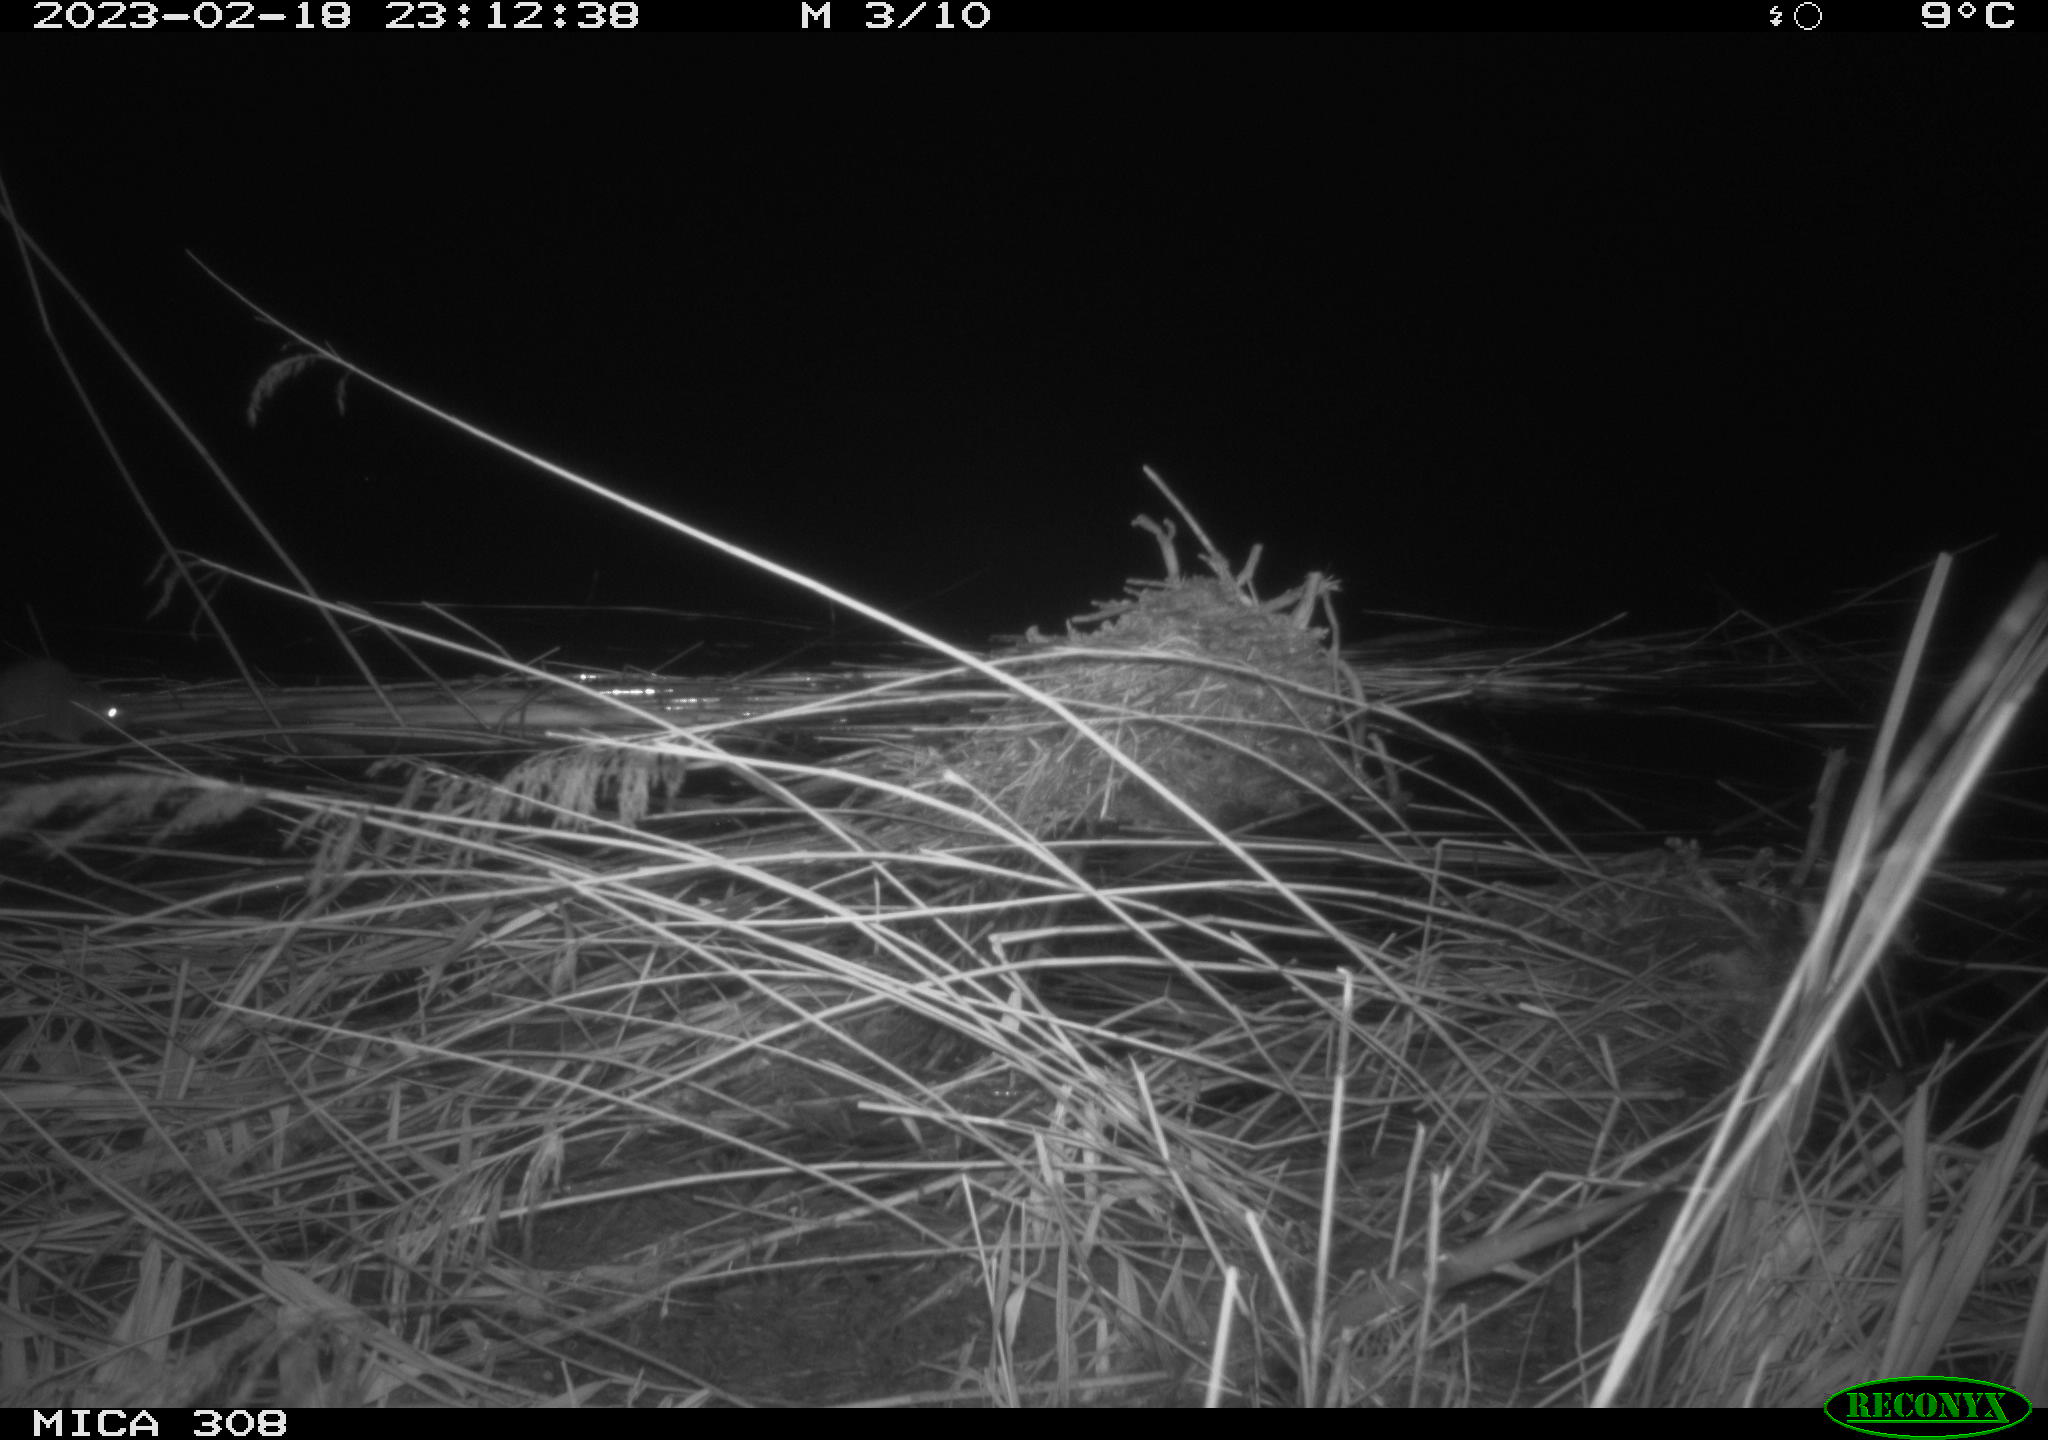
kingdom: Animalia
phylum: Chordata
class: Mammalia
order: Rodentia
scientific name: Rodentia
